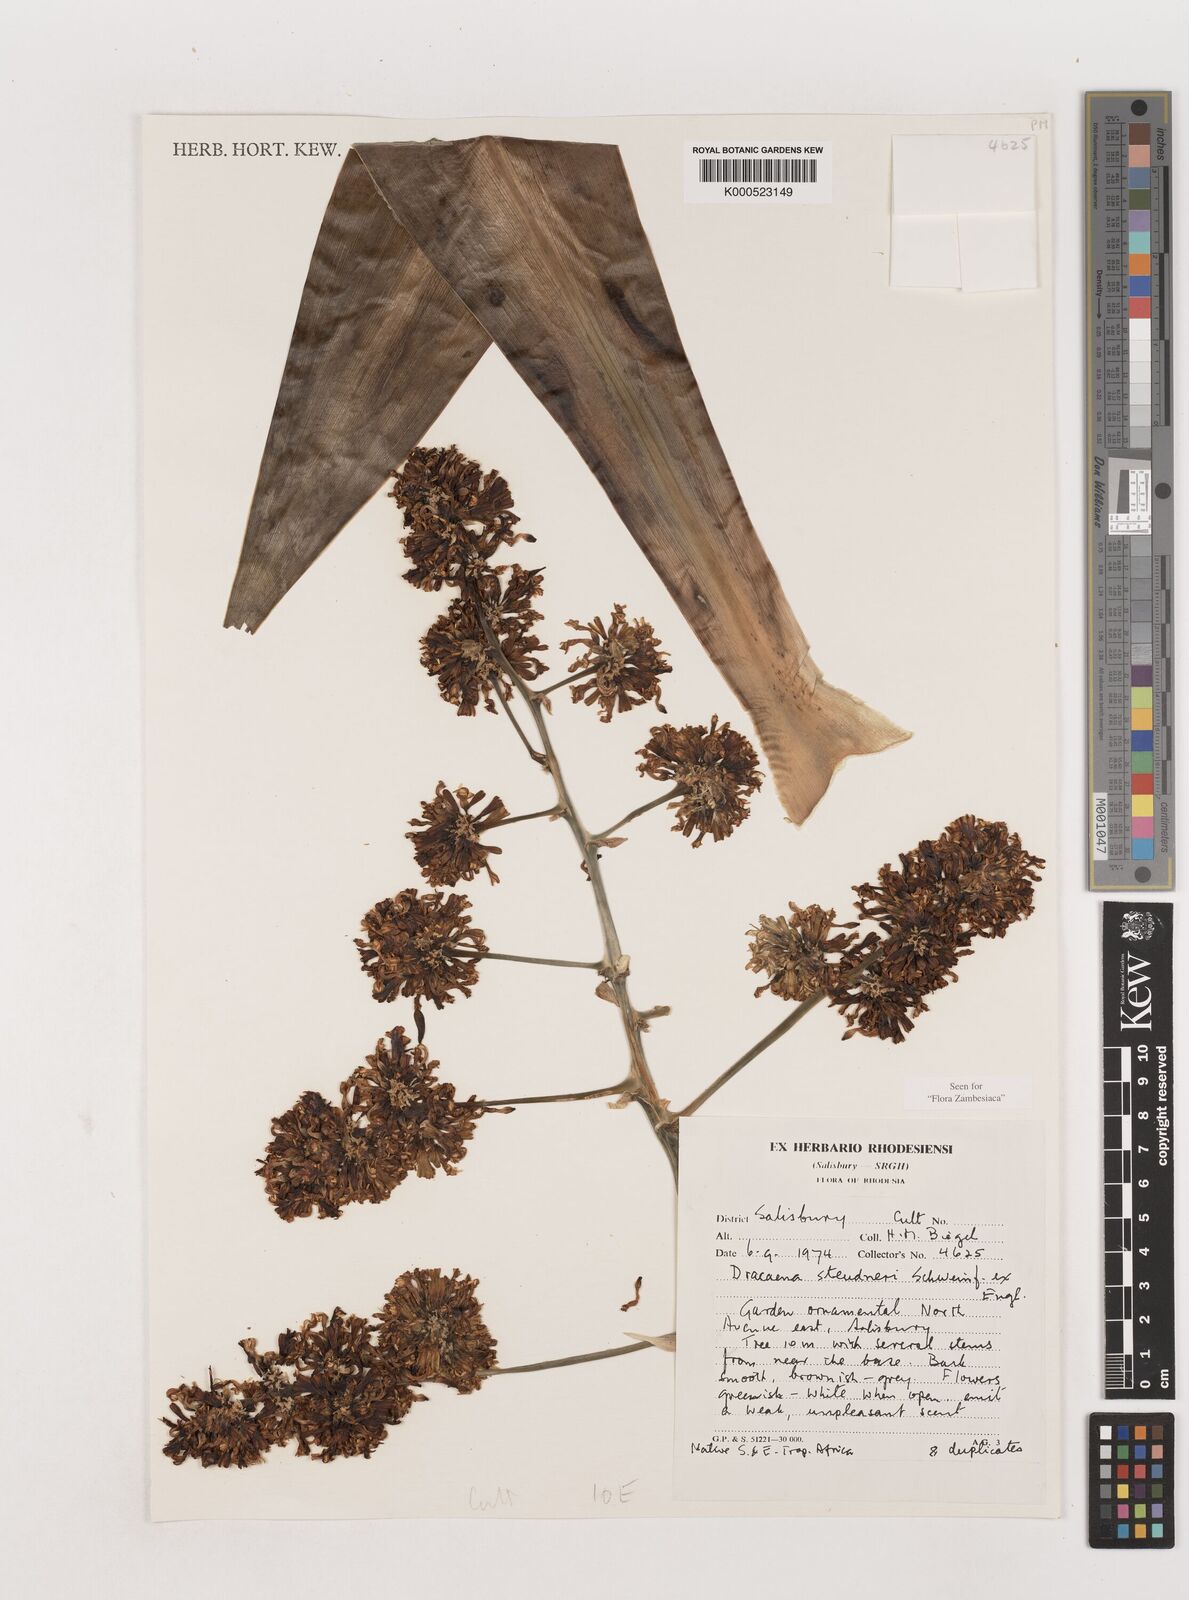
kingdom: Plantae
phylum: Tracheophyta
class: Liliopsida
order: Asparagales
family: Asparagaceae
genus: Dracaena
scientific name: Dracaena steudneri
